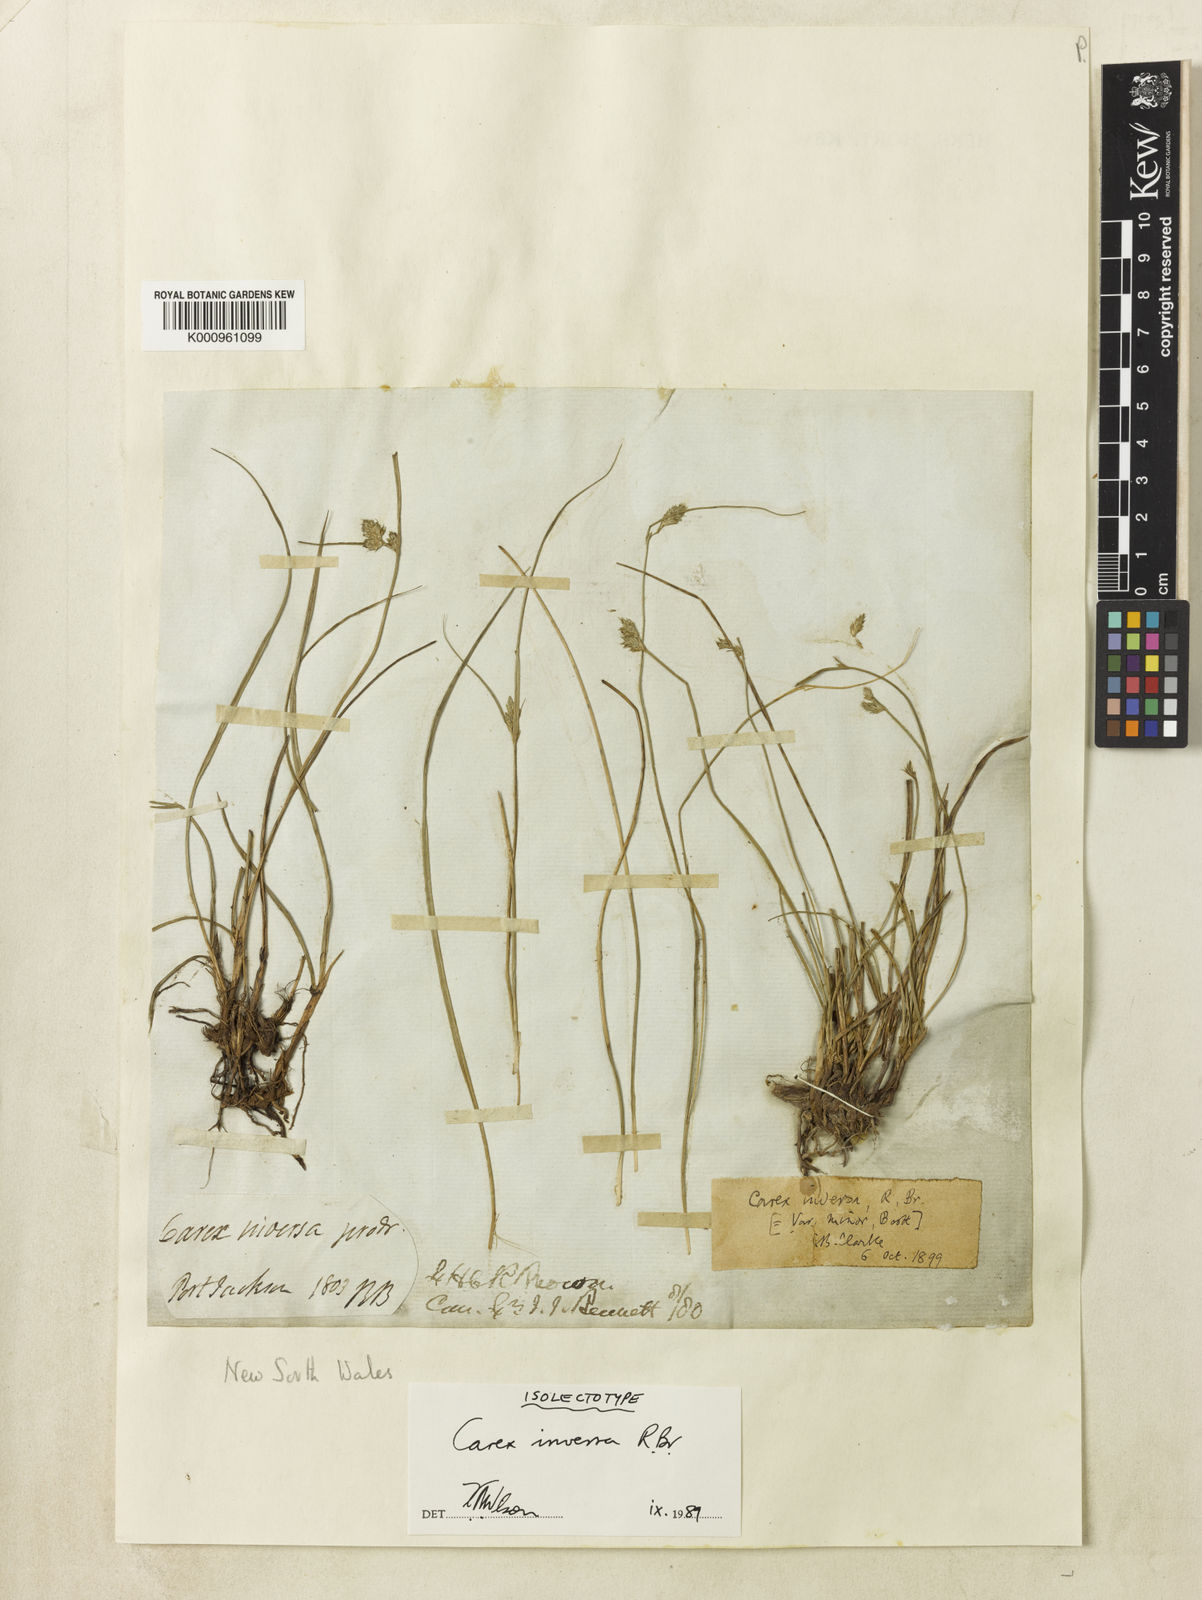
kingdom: Plantae
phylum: Tracheophyta
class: Liliopsida
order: Poales
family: Cyperaceae
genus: Carex
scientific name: Carex inversa
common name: Knob sedge
